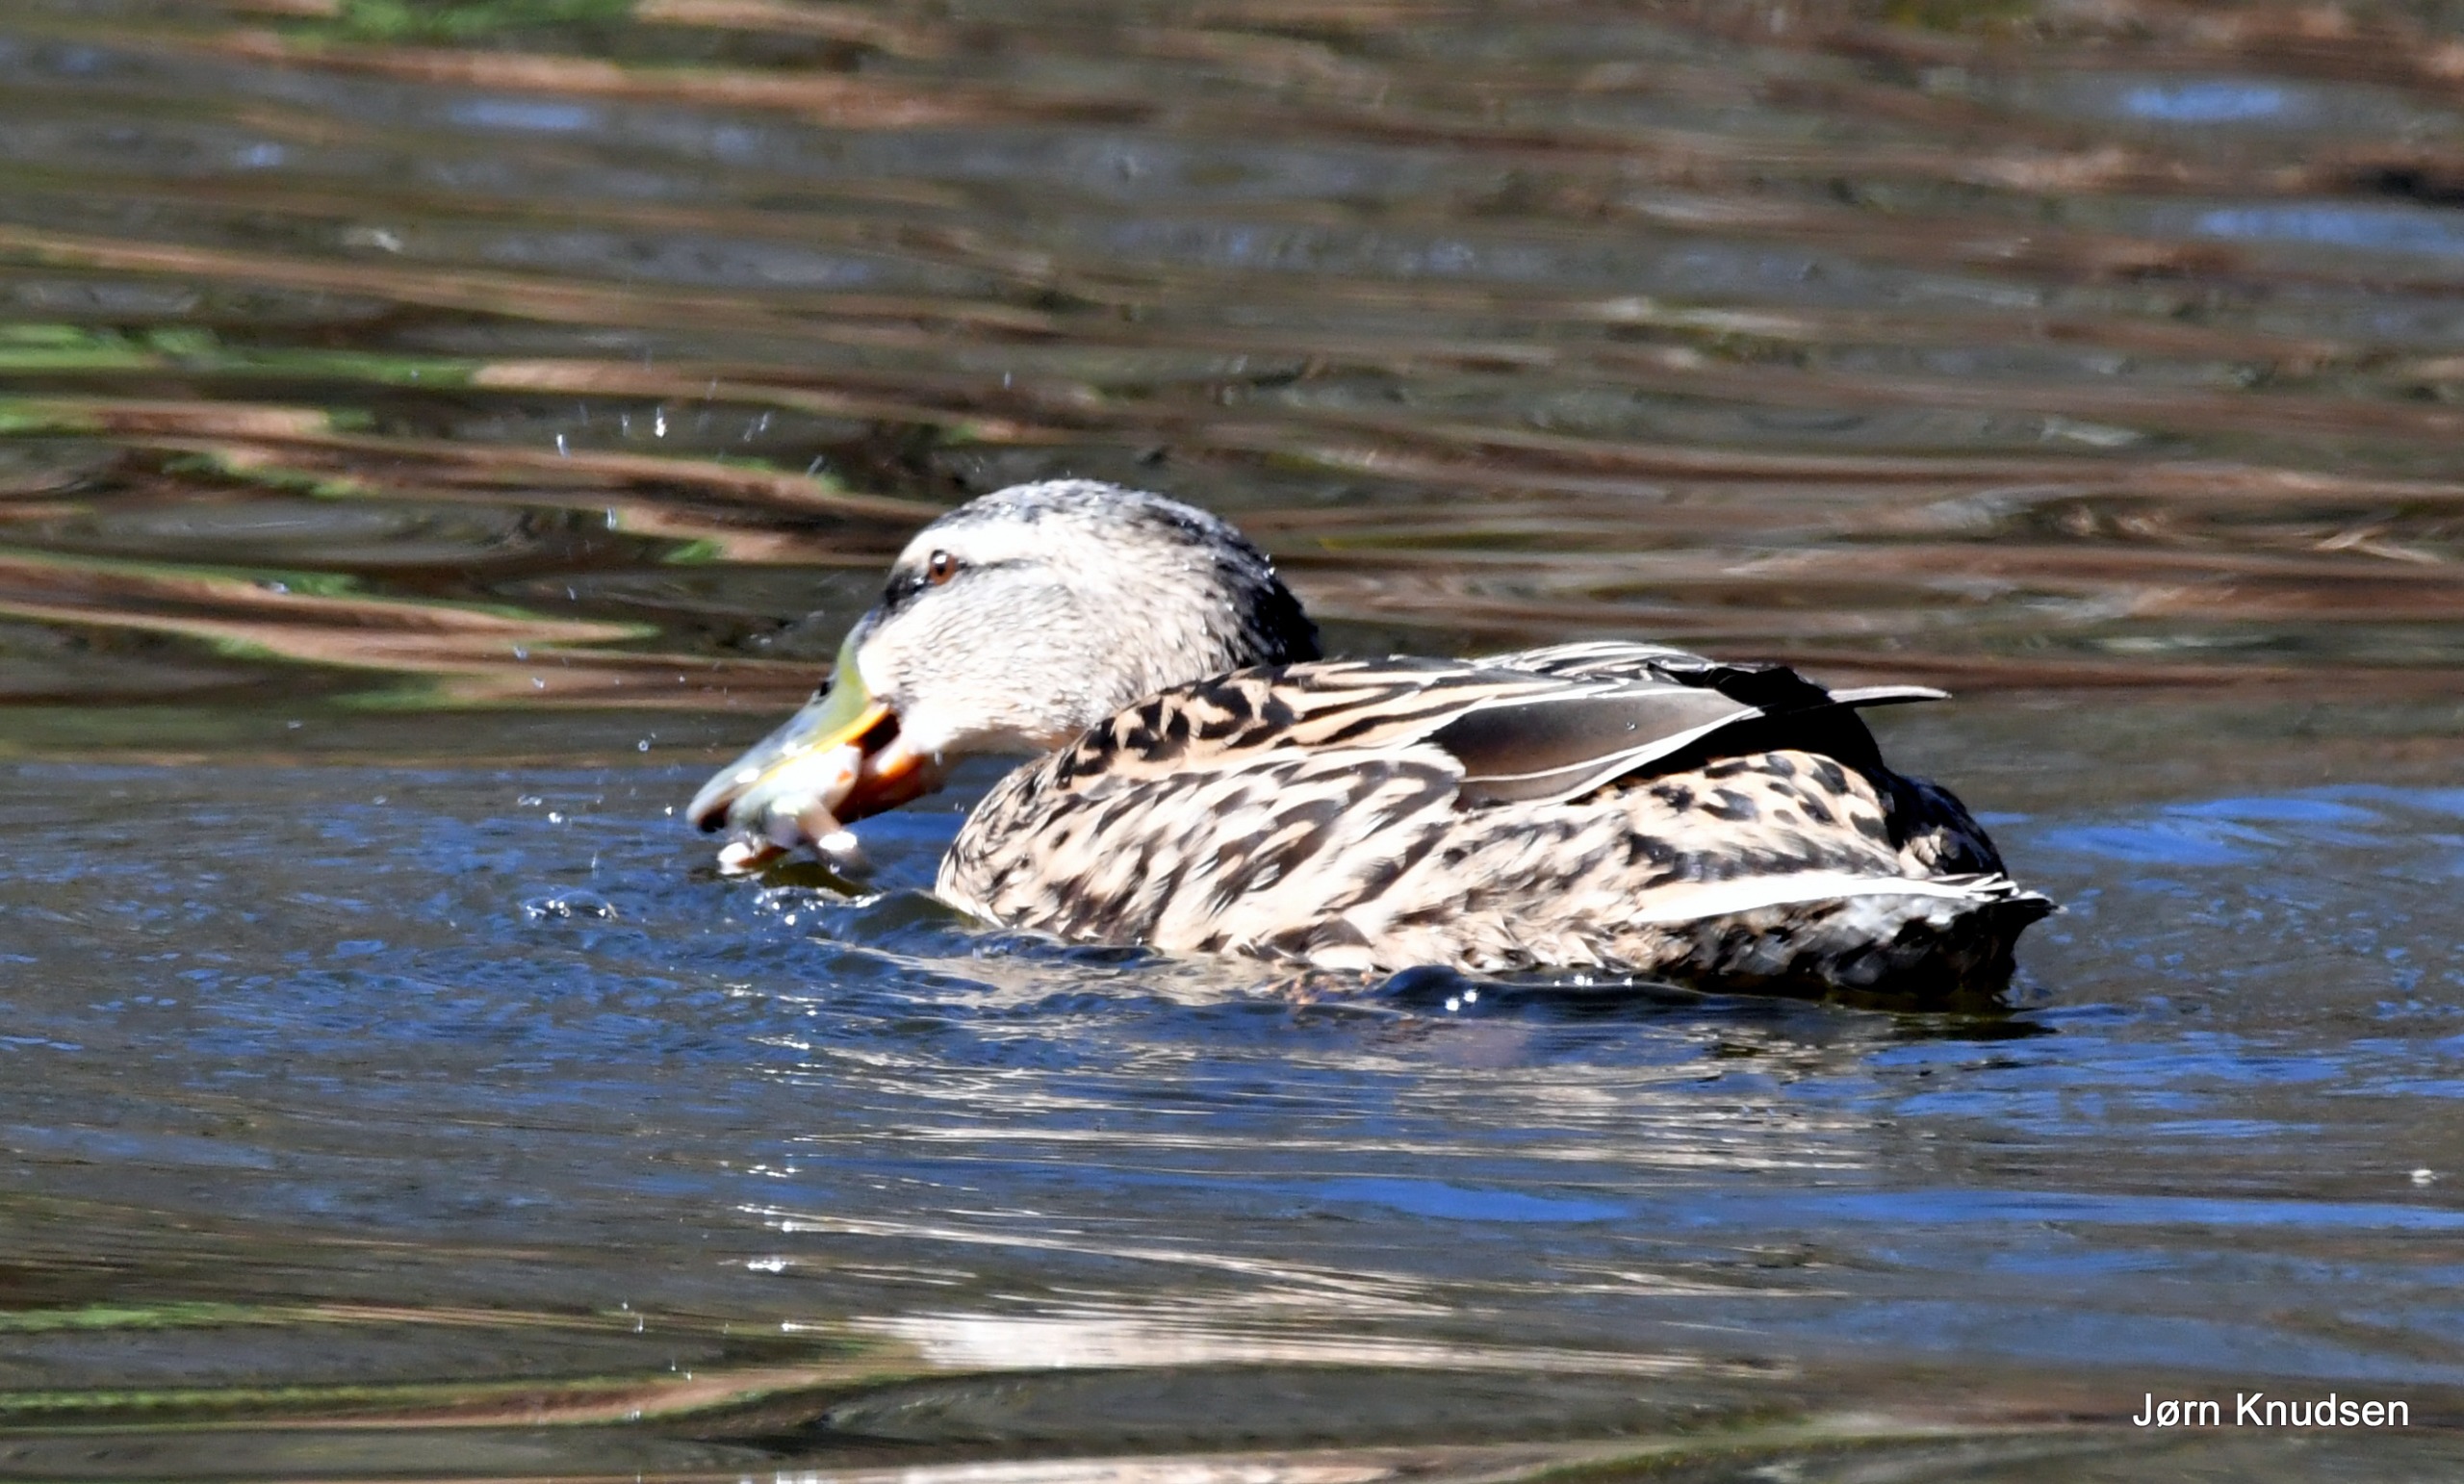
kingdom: Animalia
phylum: Chordata
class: Aves
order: Anseriformes
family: Anatidae
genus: Anas
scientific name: Anas platyrhynchos
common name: Gråand
